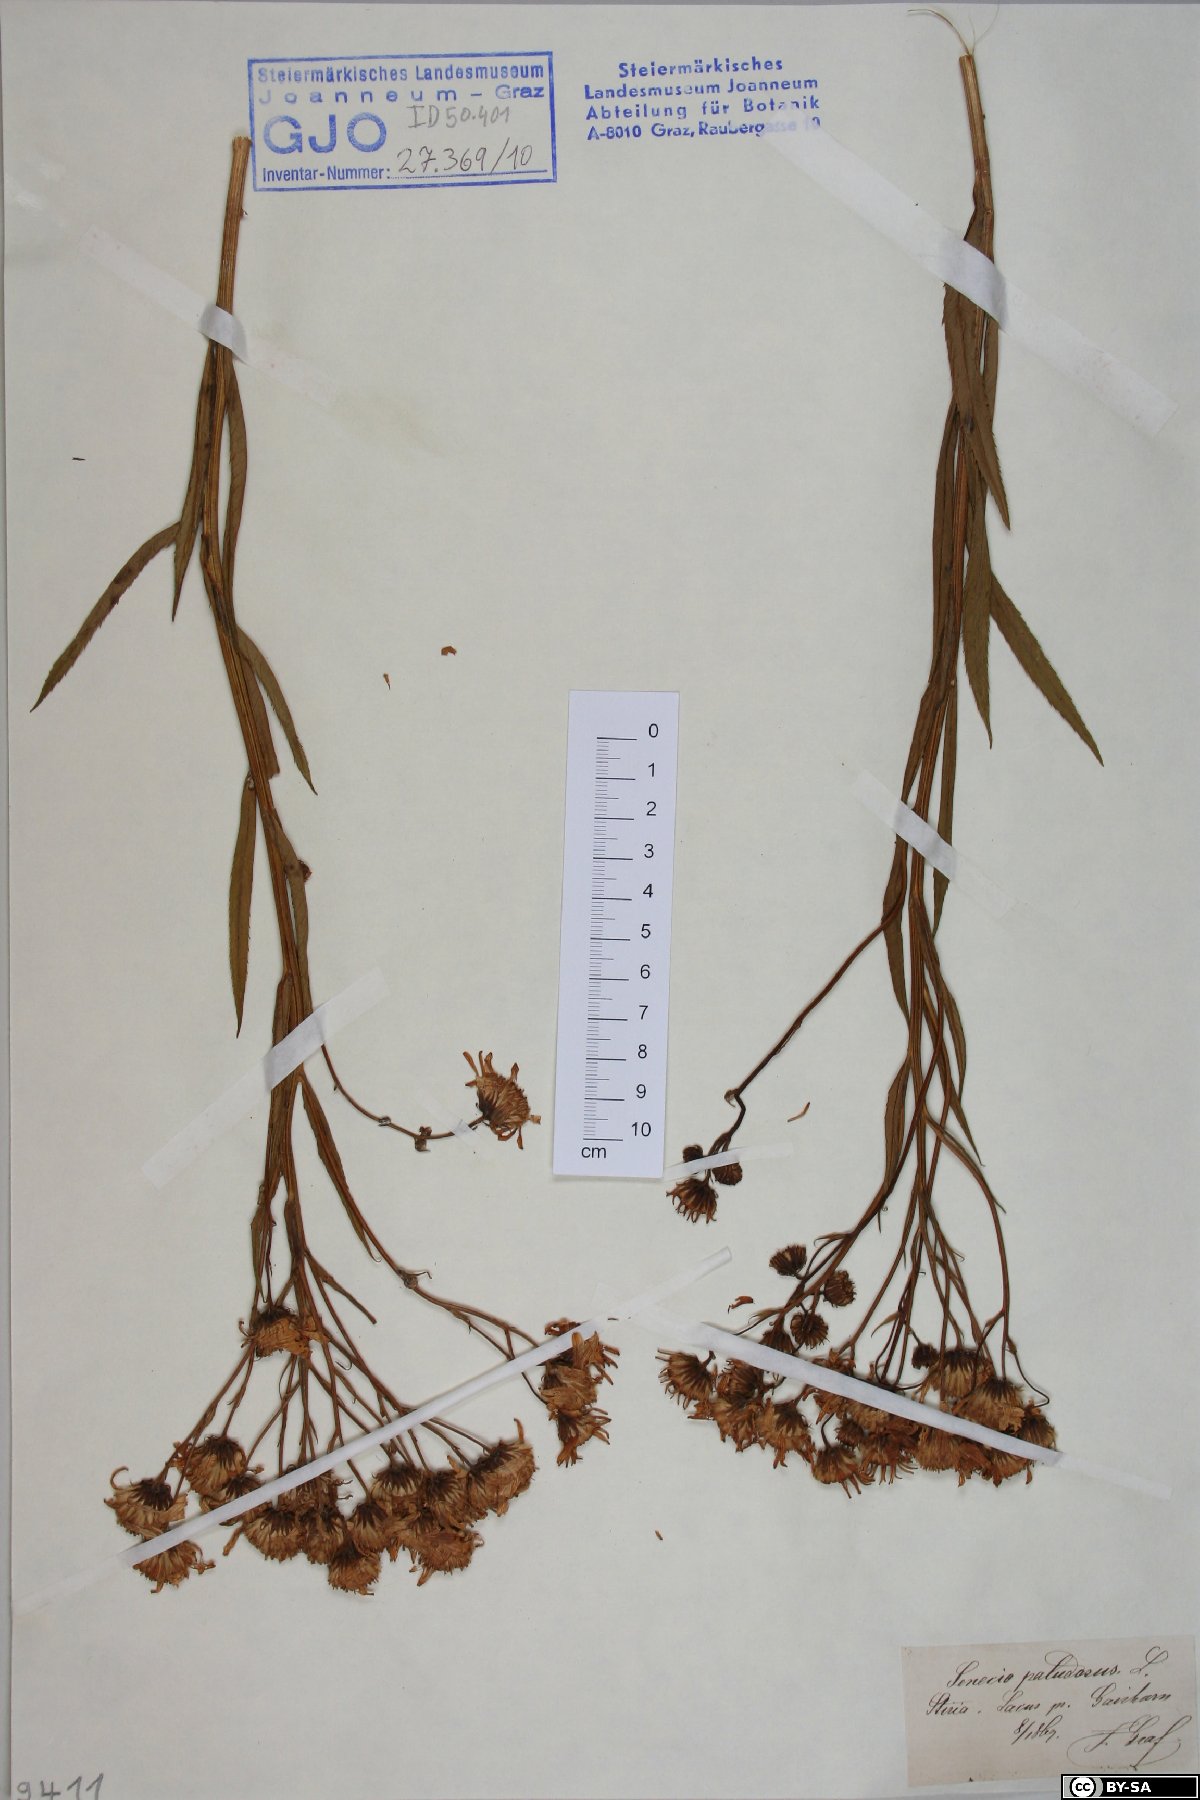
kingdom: Plantae
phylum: Tracheophyta
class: Magnoliopsida
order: Asterales
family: Asteraceae
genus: Jacobaea
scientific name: Jacobaea paludosa
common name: Fen ragwort
